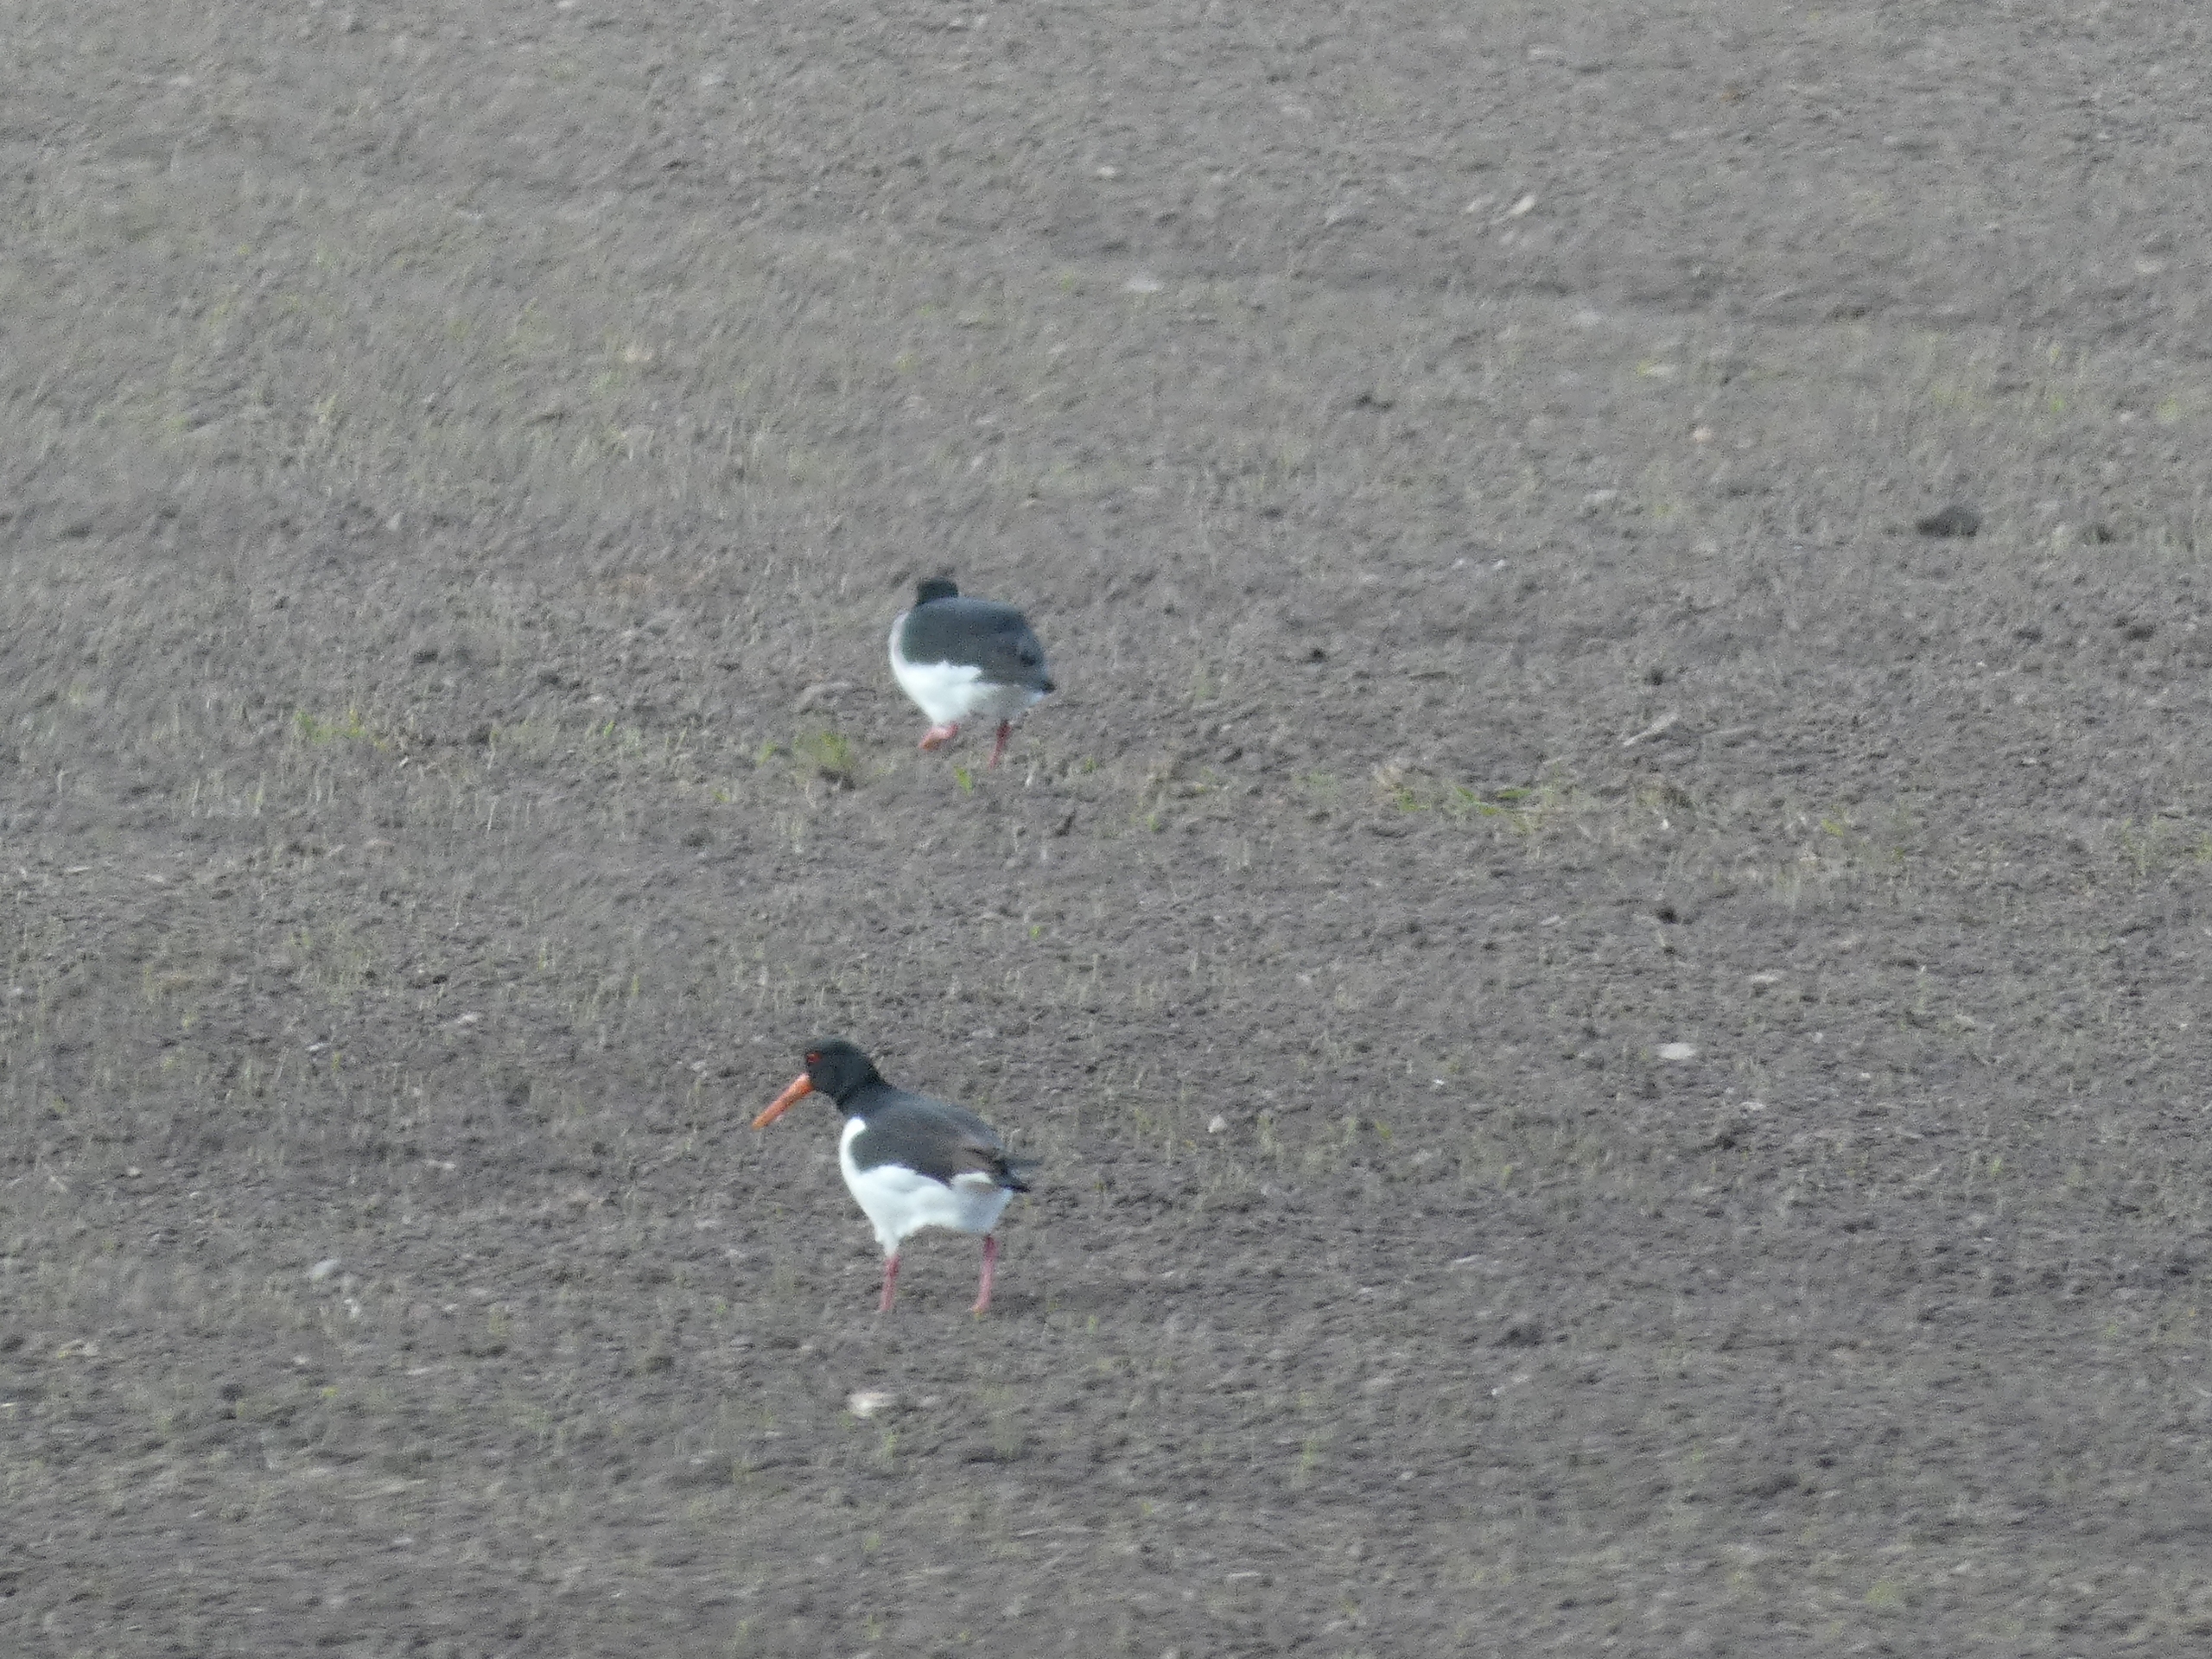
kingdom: Animalia
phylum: Chordata
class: Aves
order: Charadriiformes
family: Haematopodidae
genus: Haematopus
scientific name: Haematopus ostralegus
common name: Strandskade
